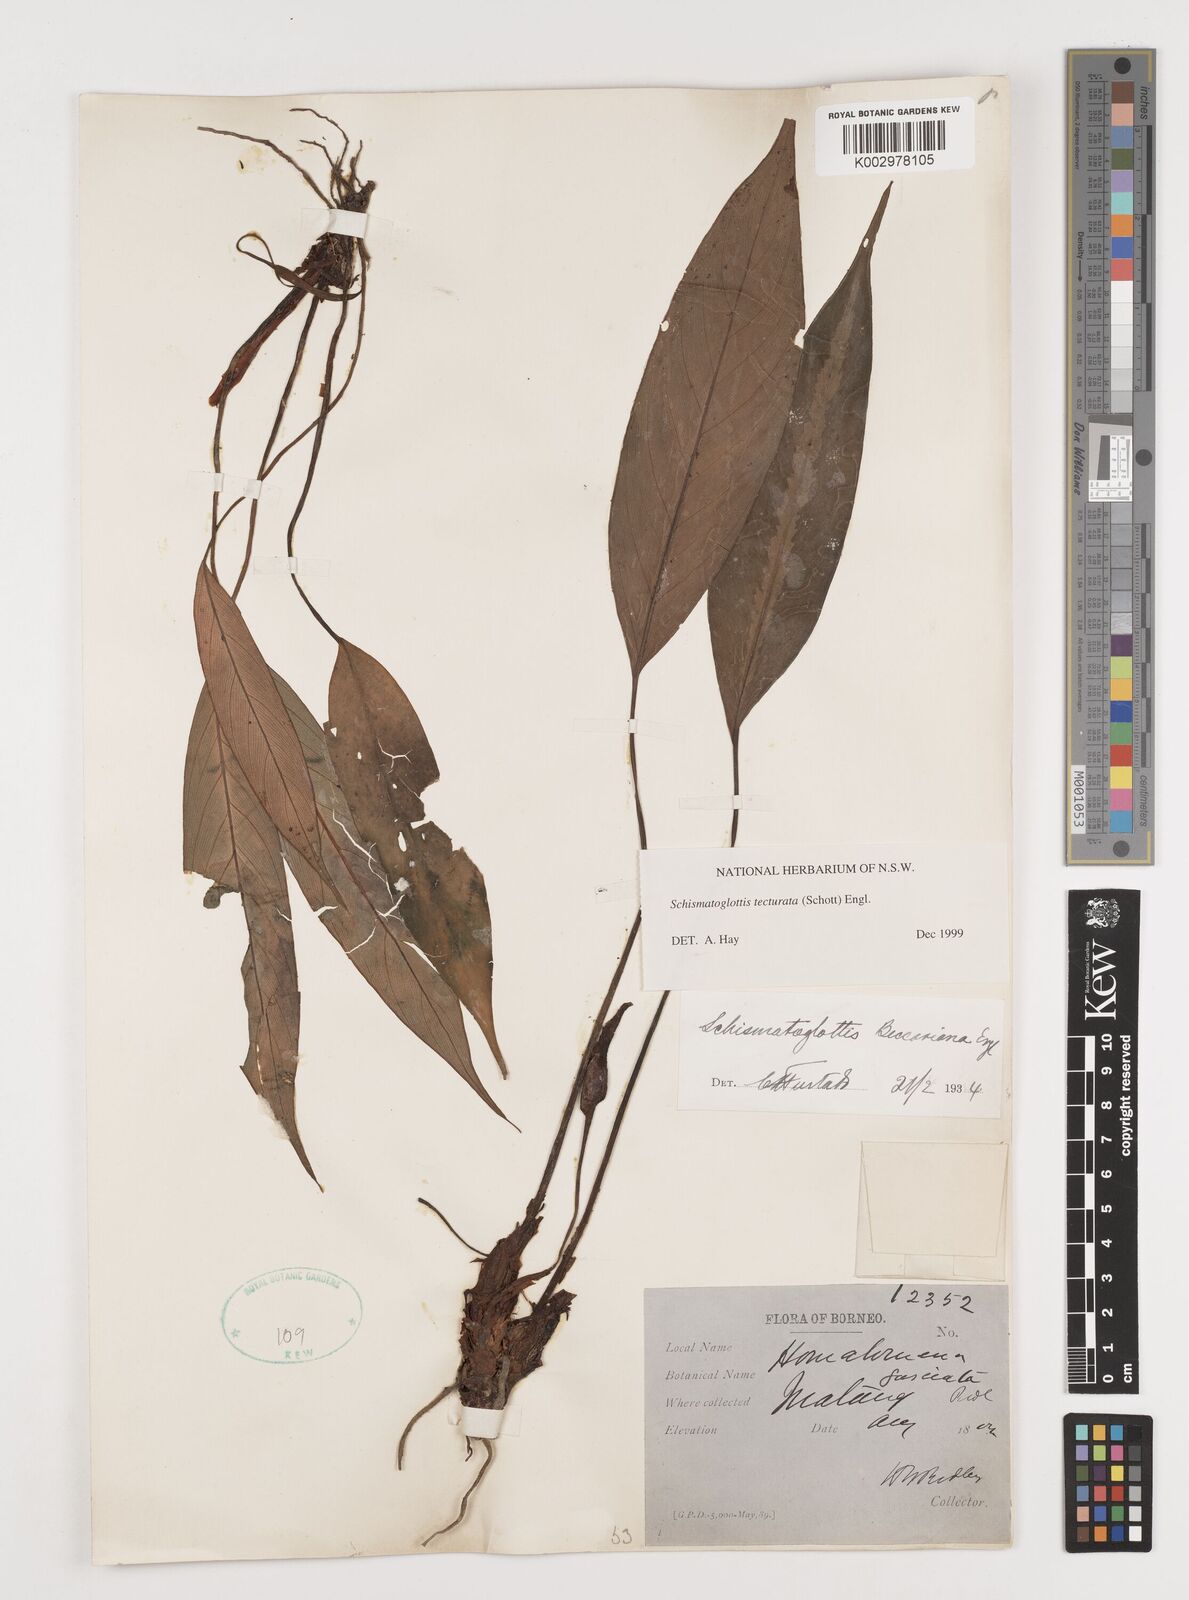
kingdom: Plantae
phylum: Tracheophyta
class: Liliopsida
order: Zingiberales
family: Costaceae
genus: Colobogynium
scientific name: Colobogynium variegatum
